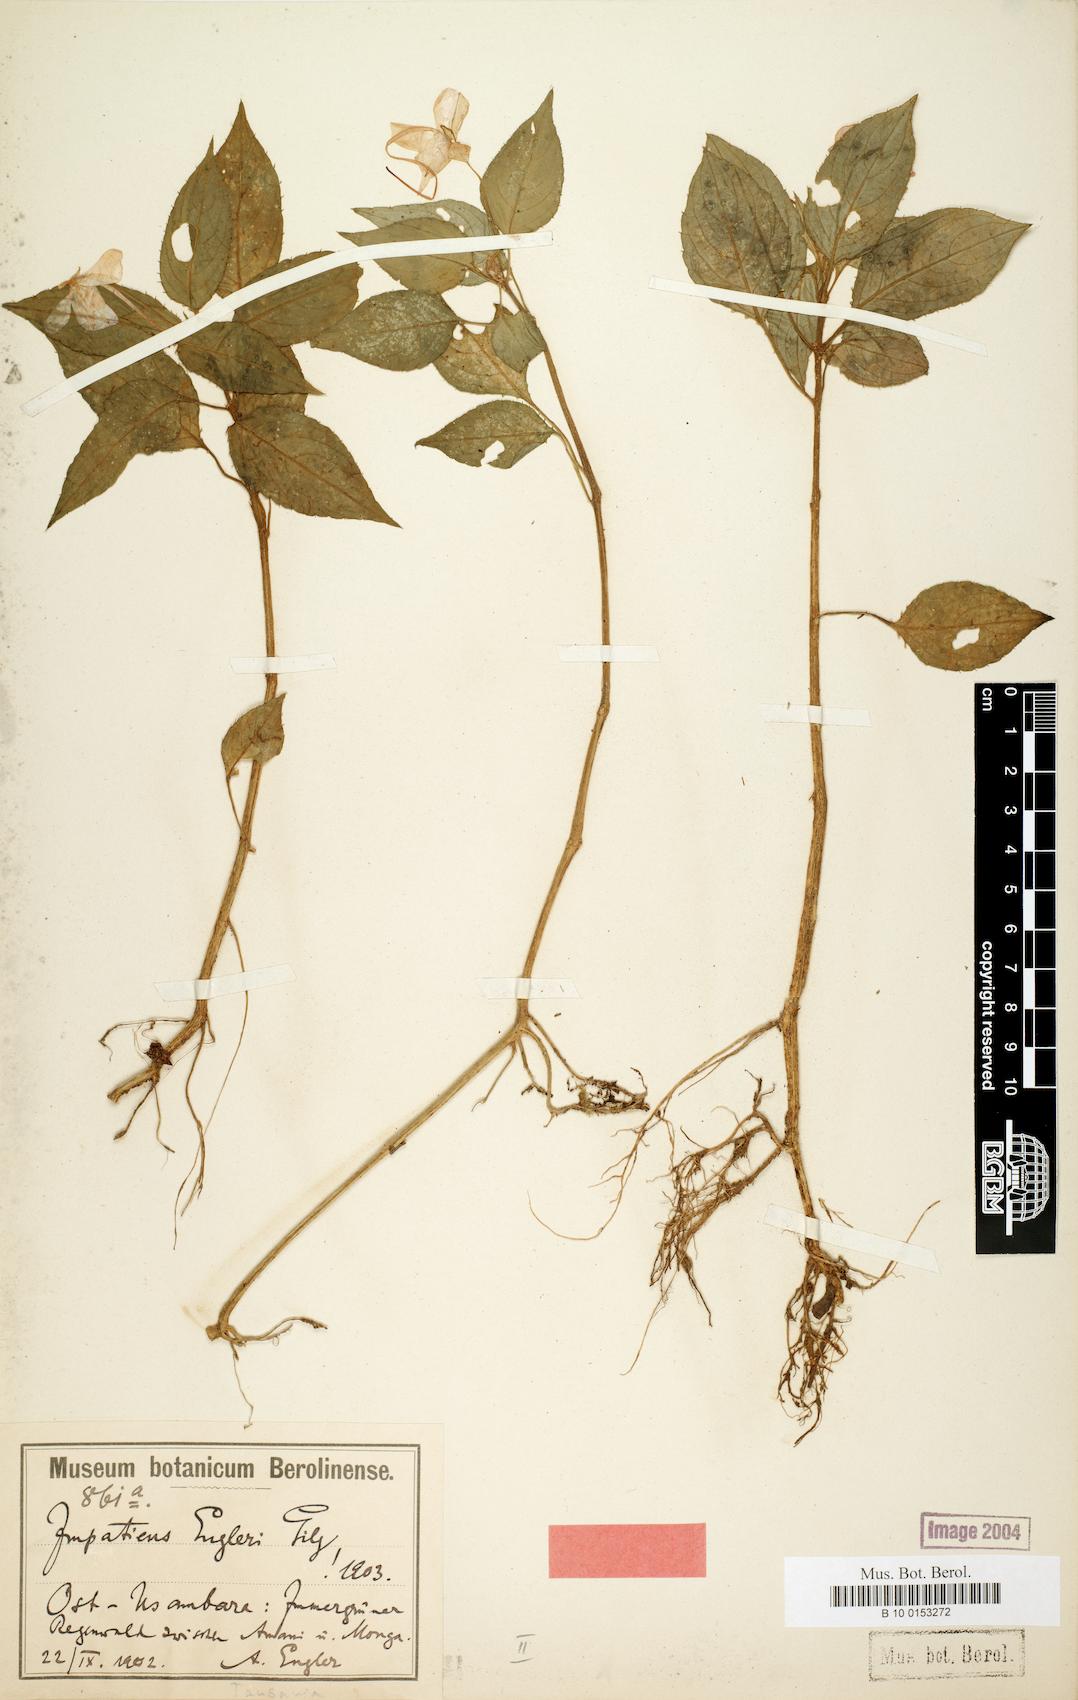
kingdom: Plantae
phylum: Tracheophyta
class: Magnoliopsida
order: Ericales
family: Balsaminaceae
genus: Impatiens
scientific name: Impatiens engleri
